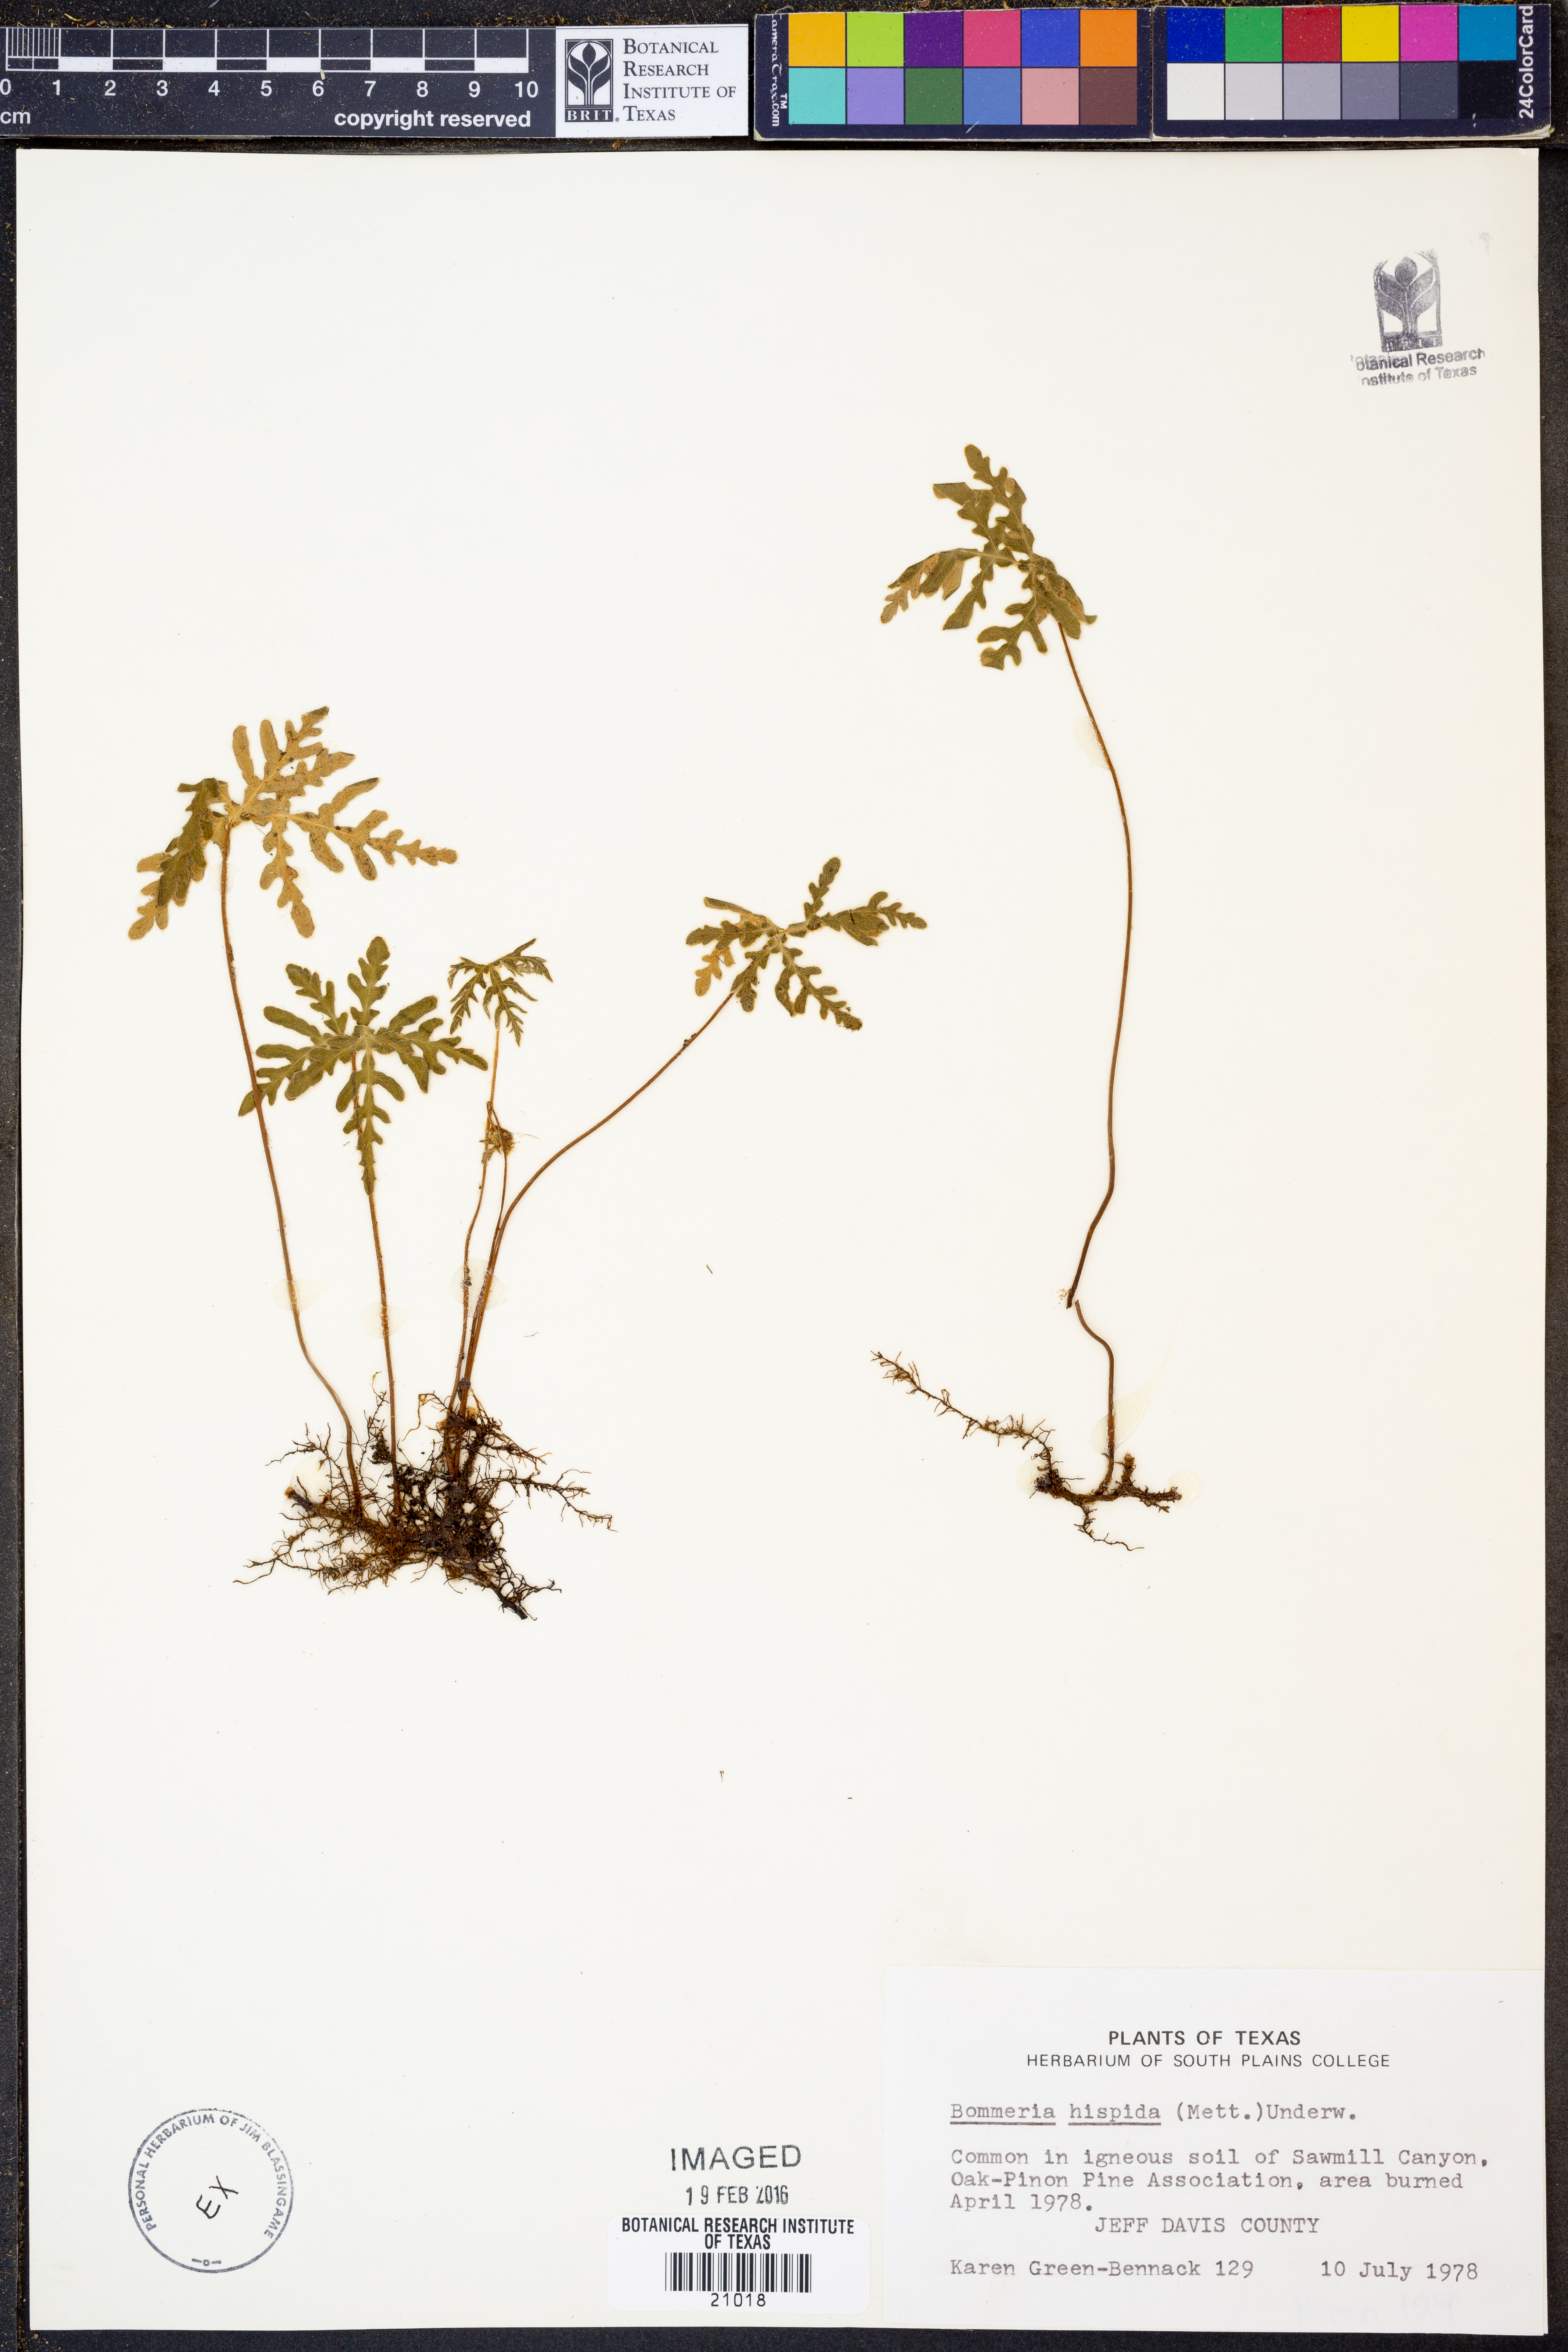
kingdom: Plantae
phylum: Tracheophyta
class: Polypodiopsida
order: Polypodiales
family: Pteridaceae
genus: Bommeria
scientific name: Bommeria hispida
